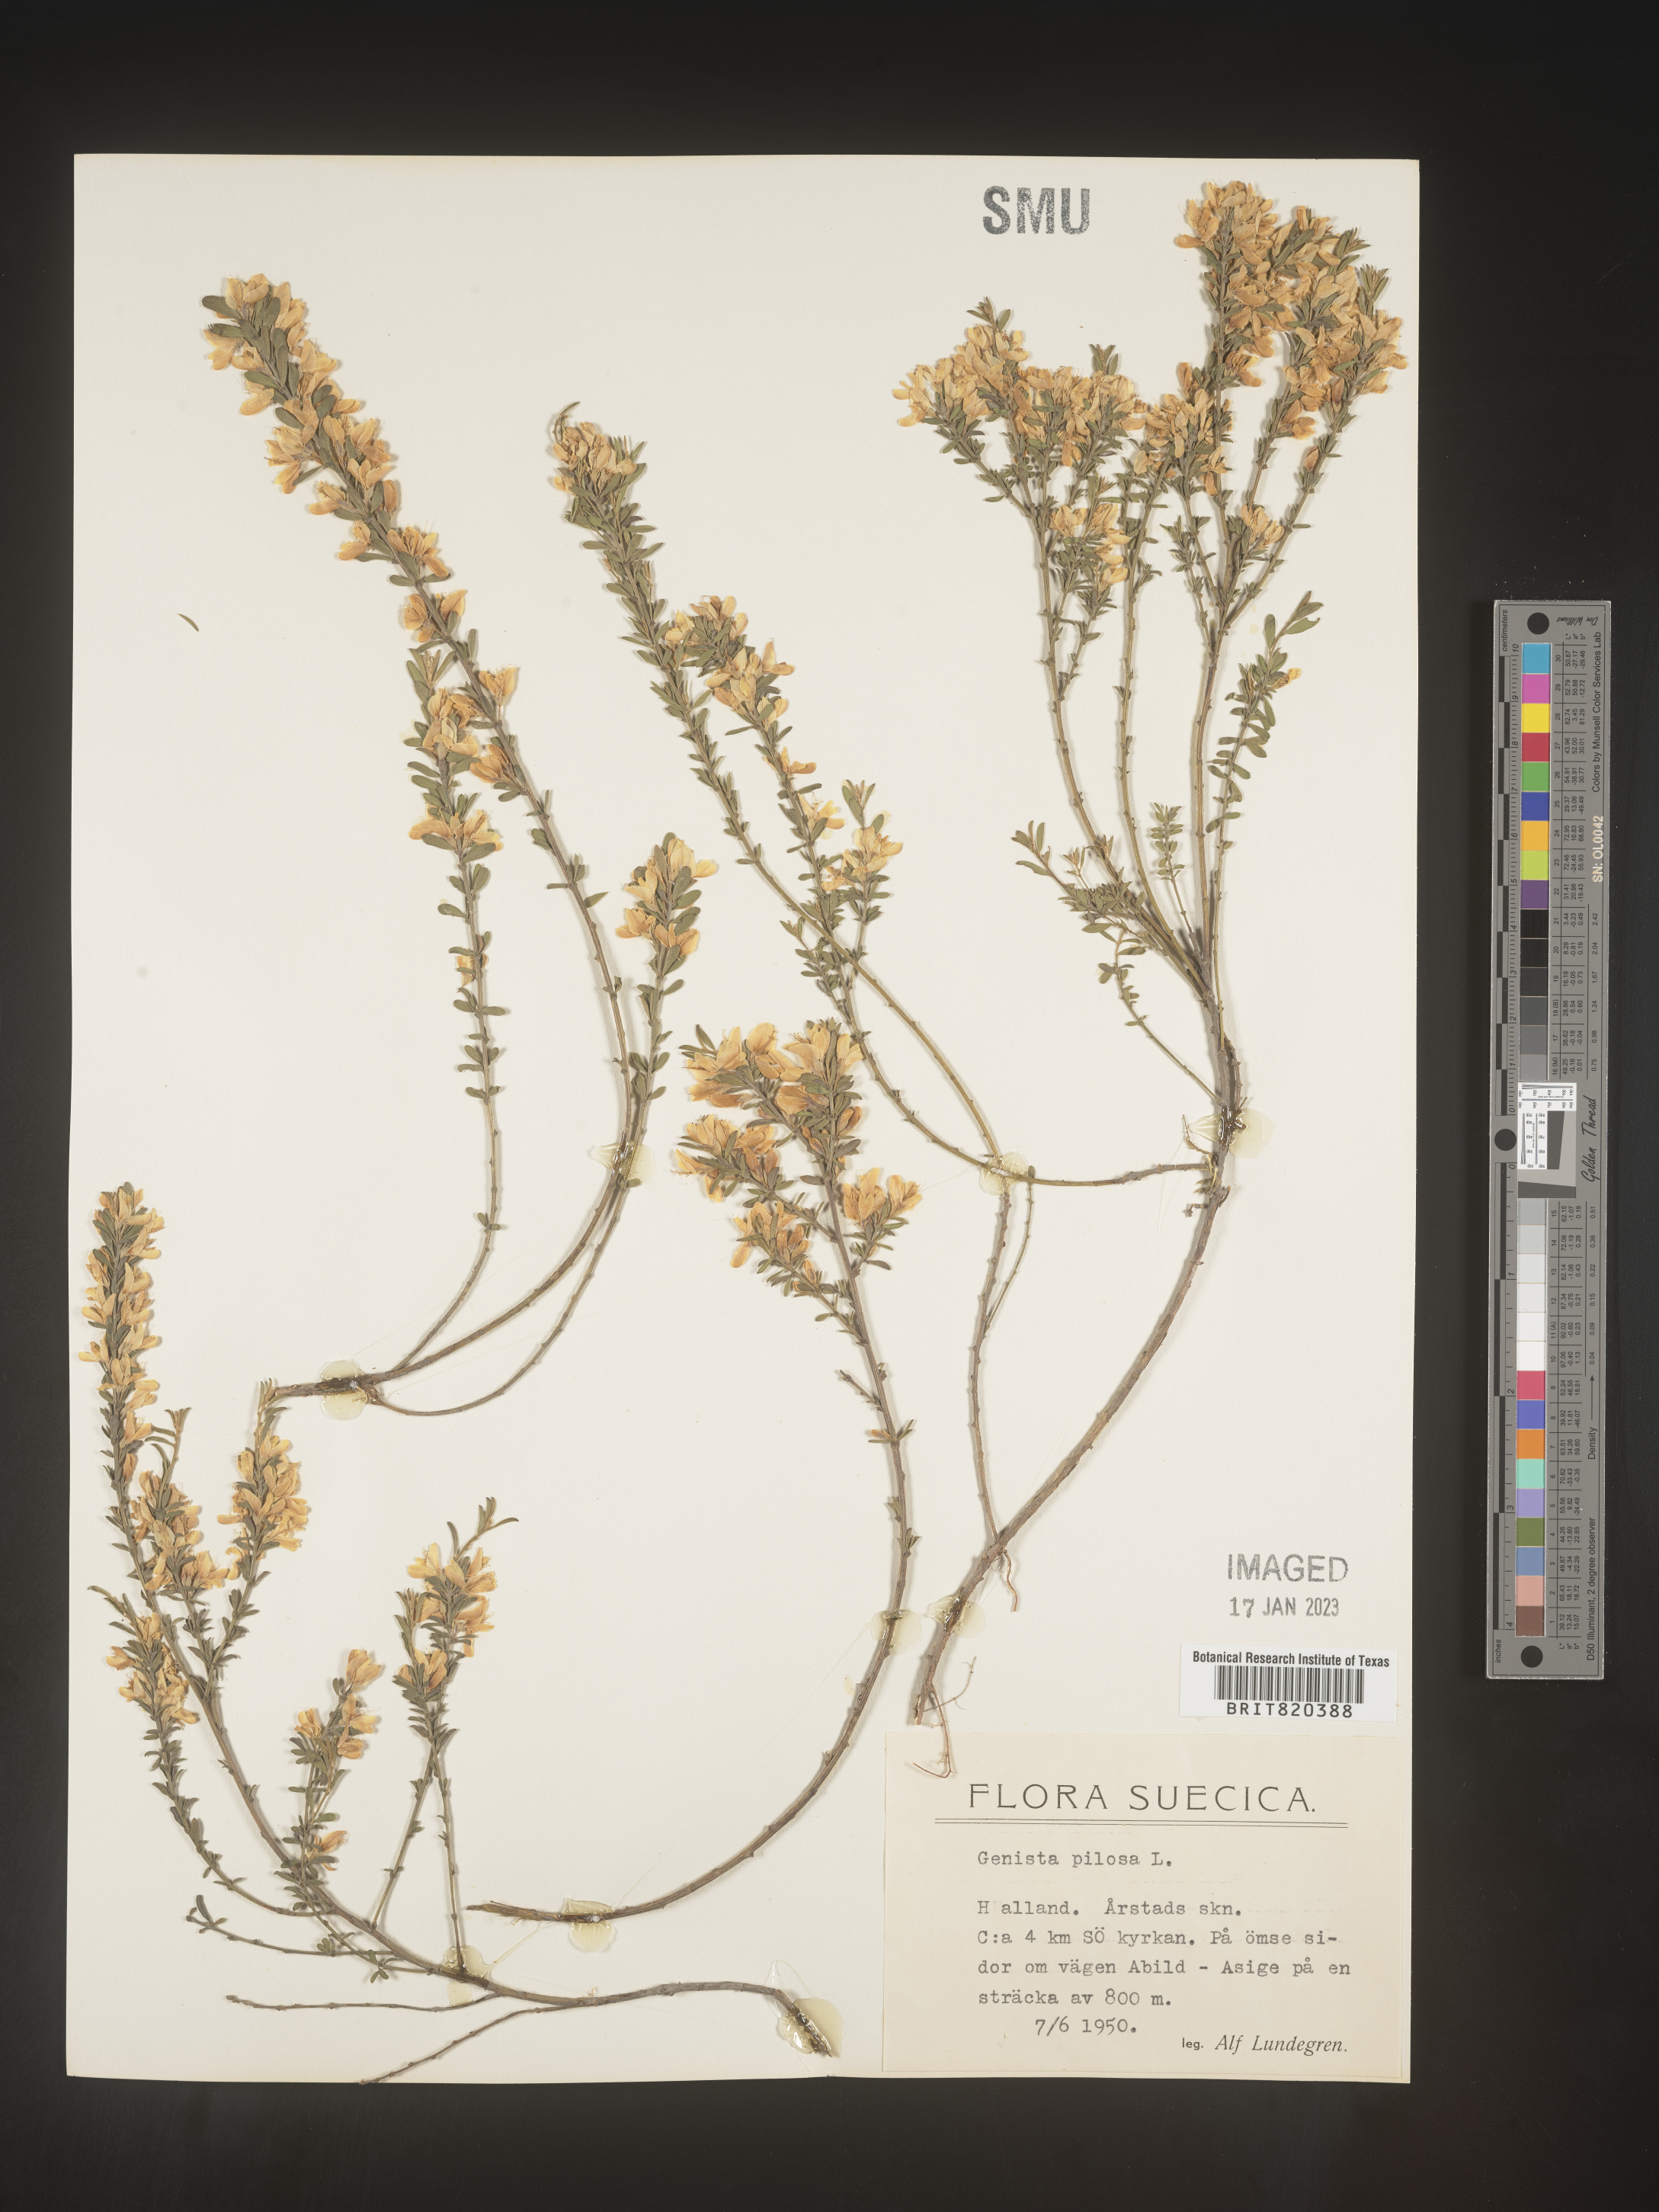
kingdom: Plantae
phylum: Tracheophyta
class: Magnoliopsida
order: Fabales
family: Fabaceae
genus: Genista
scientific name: Genista
